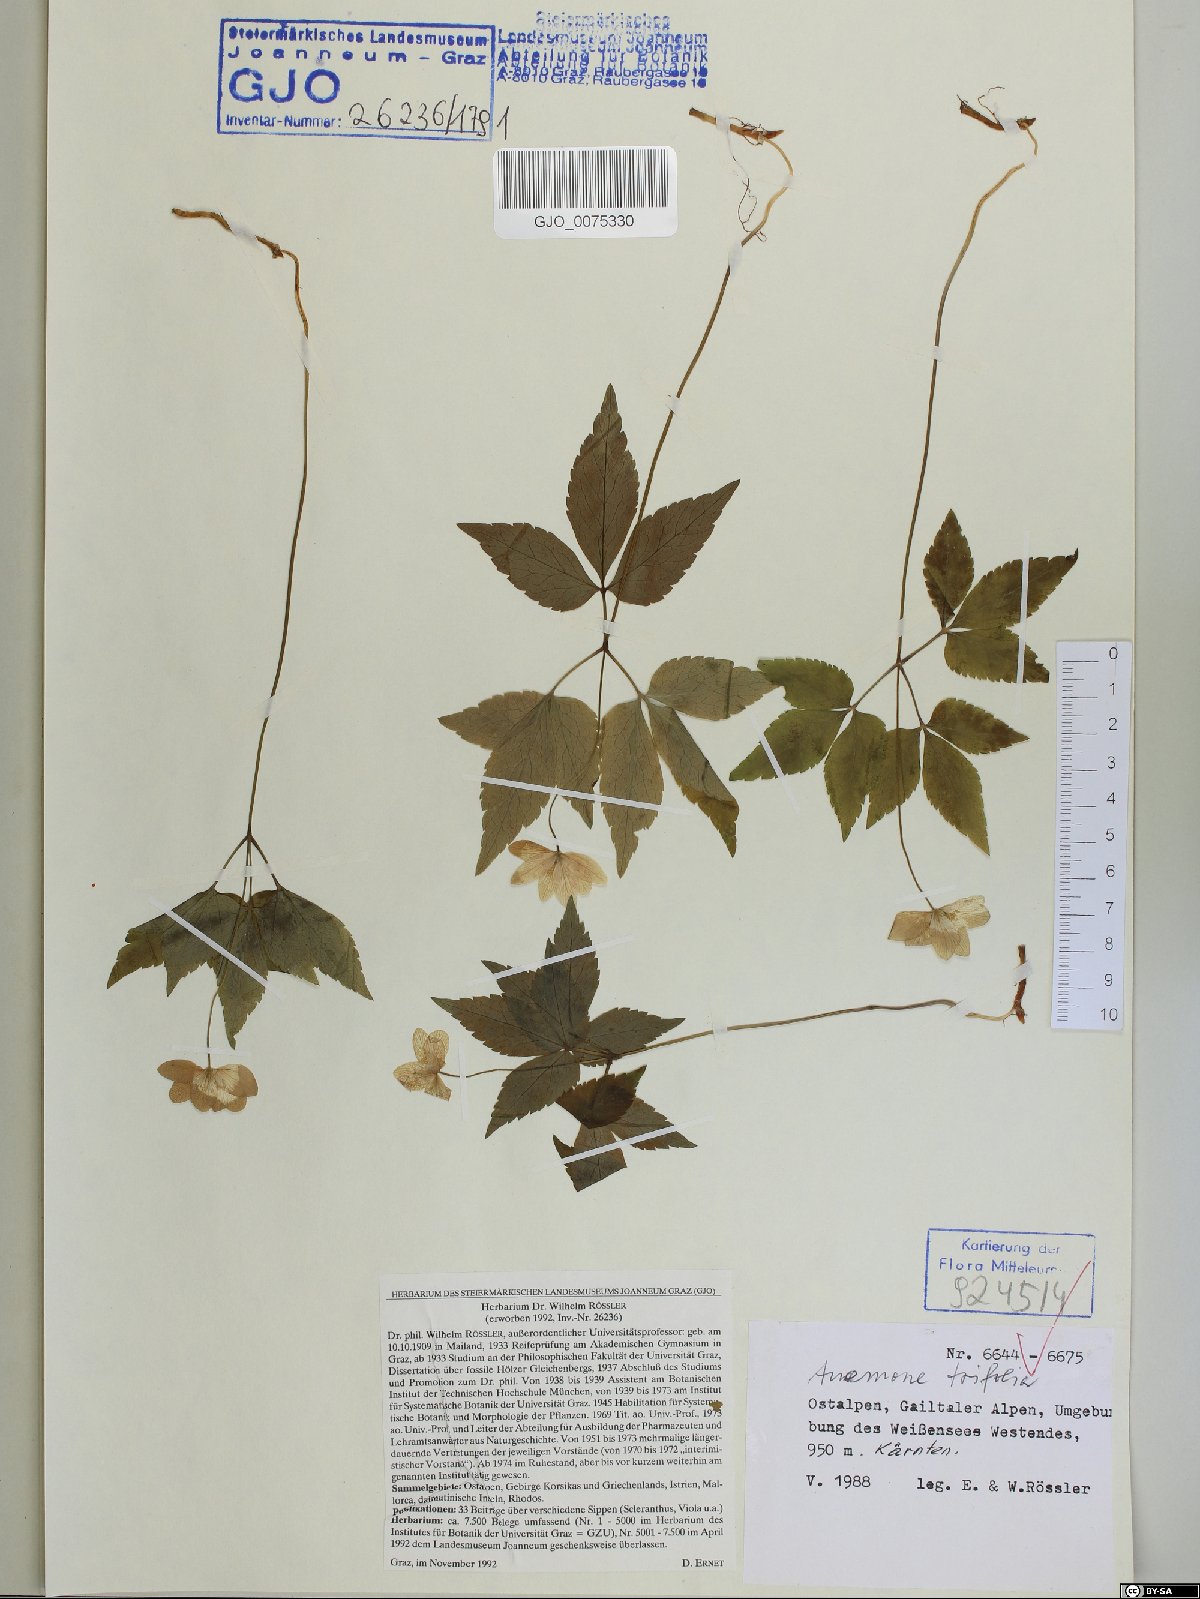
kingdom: Plantae
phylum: Tracheophyta
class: Magnoliopsida
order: Ranunculales
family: Ranunculaceae
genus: Anemone
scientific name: Anemone trifolia
